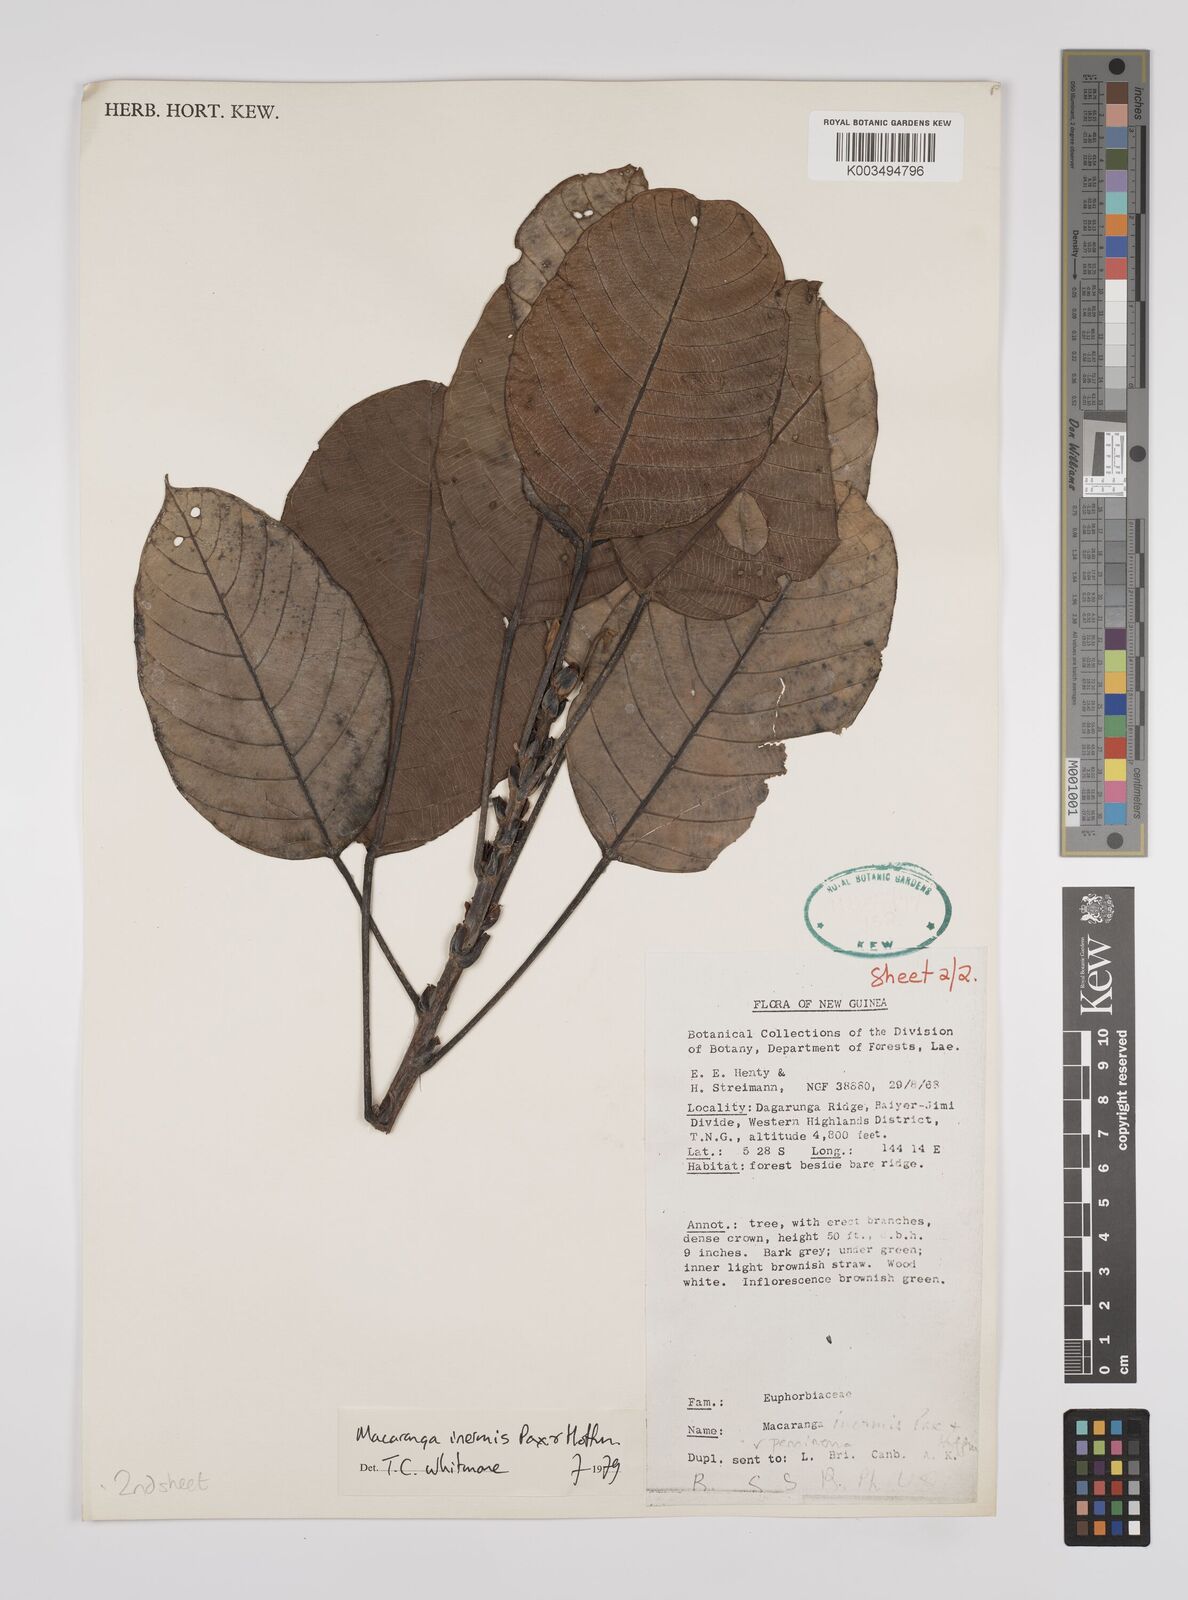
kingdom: Plantae
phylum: Tracheophyta
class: Magnoliopsida
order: Malpighiales
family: Euphorbiaceae
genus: Macaranga
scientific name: Macaranga inermis
